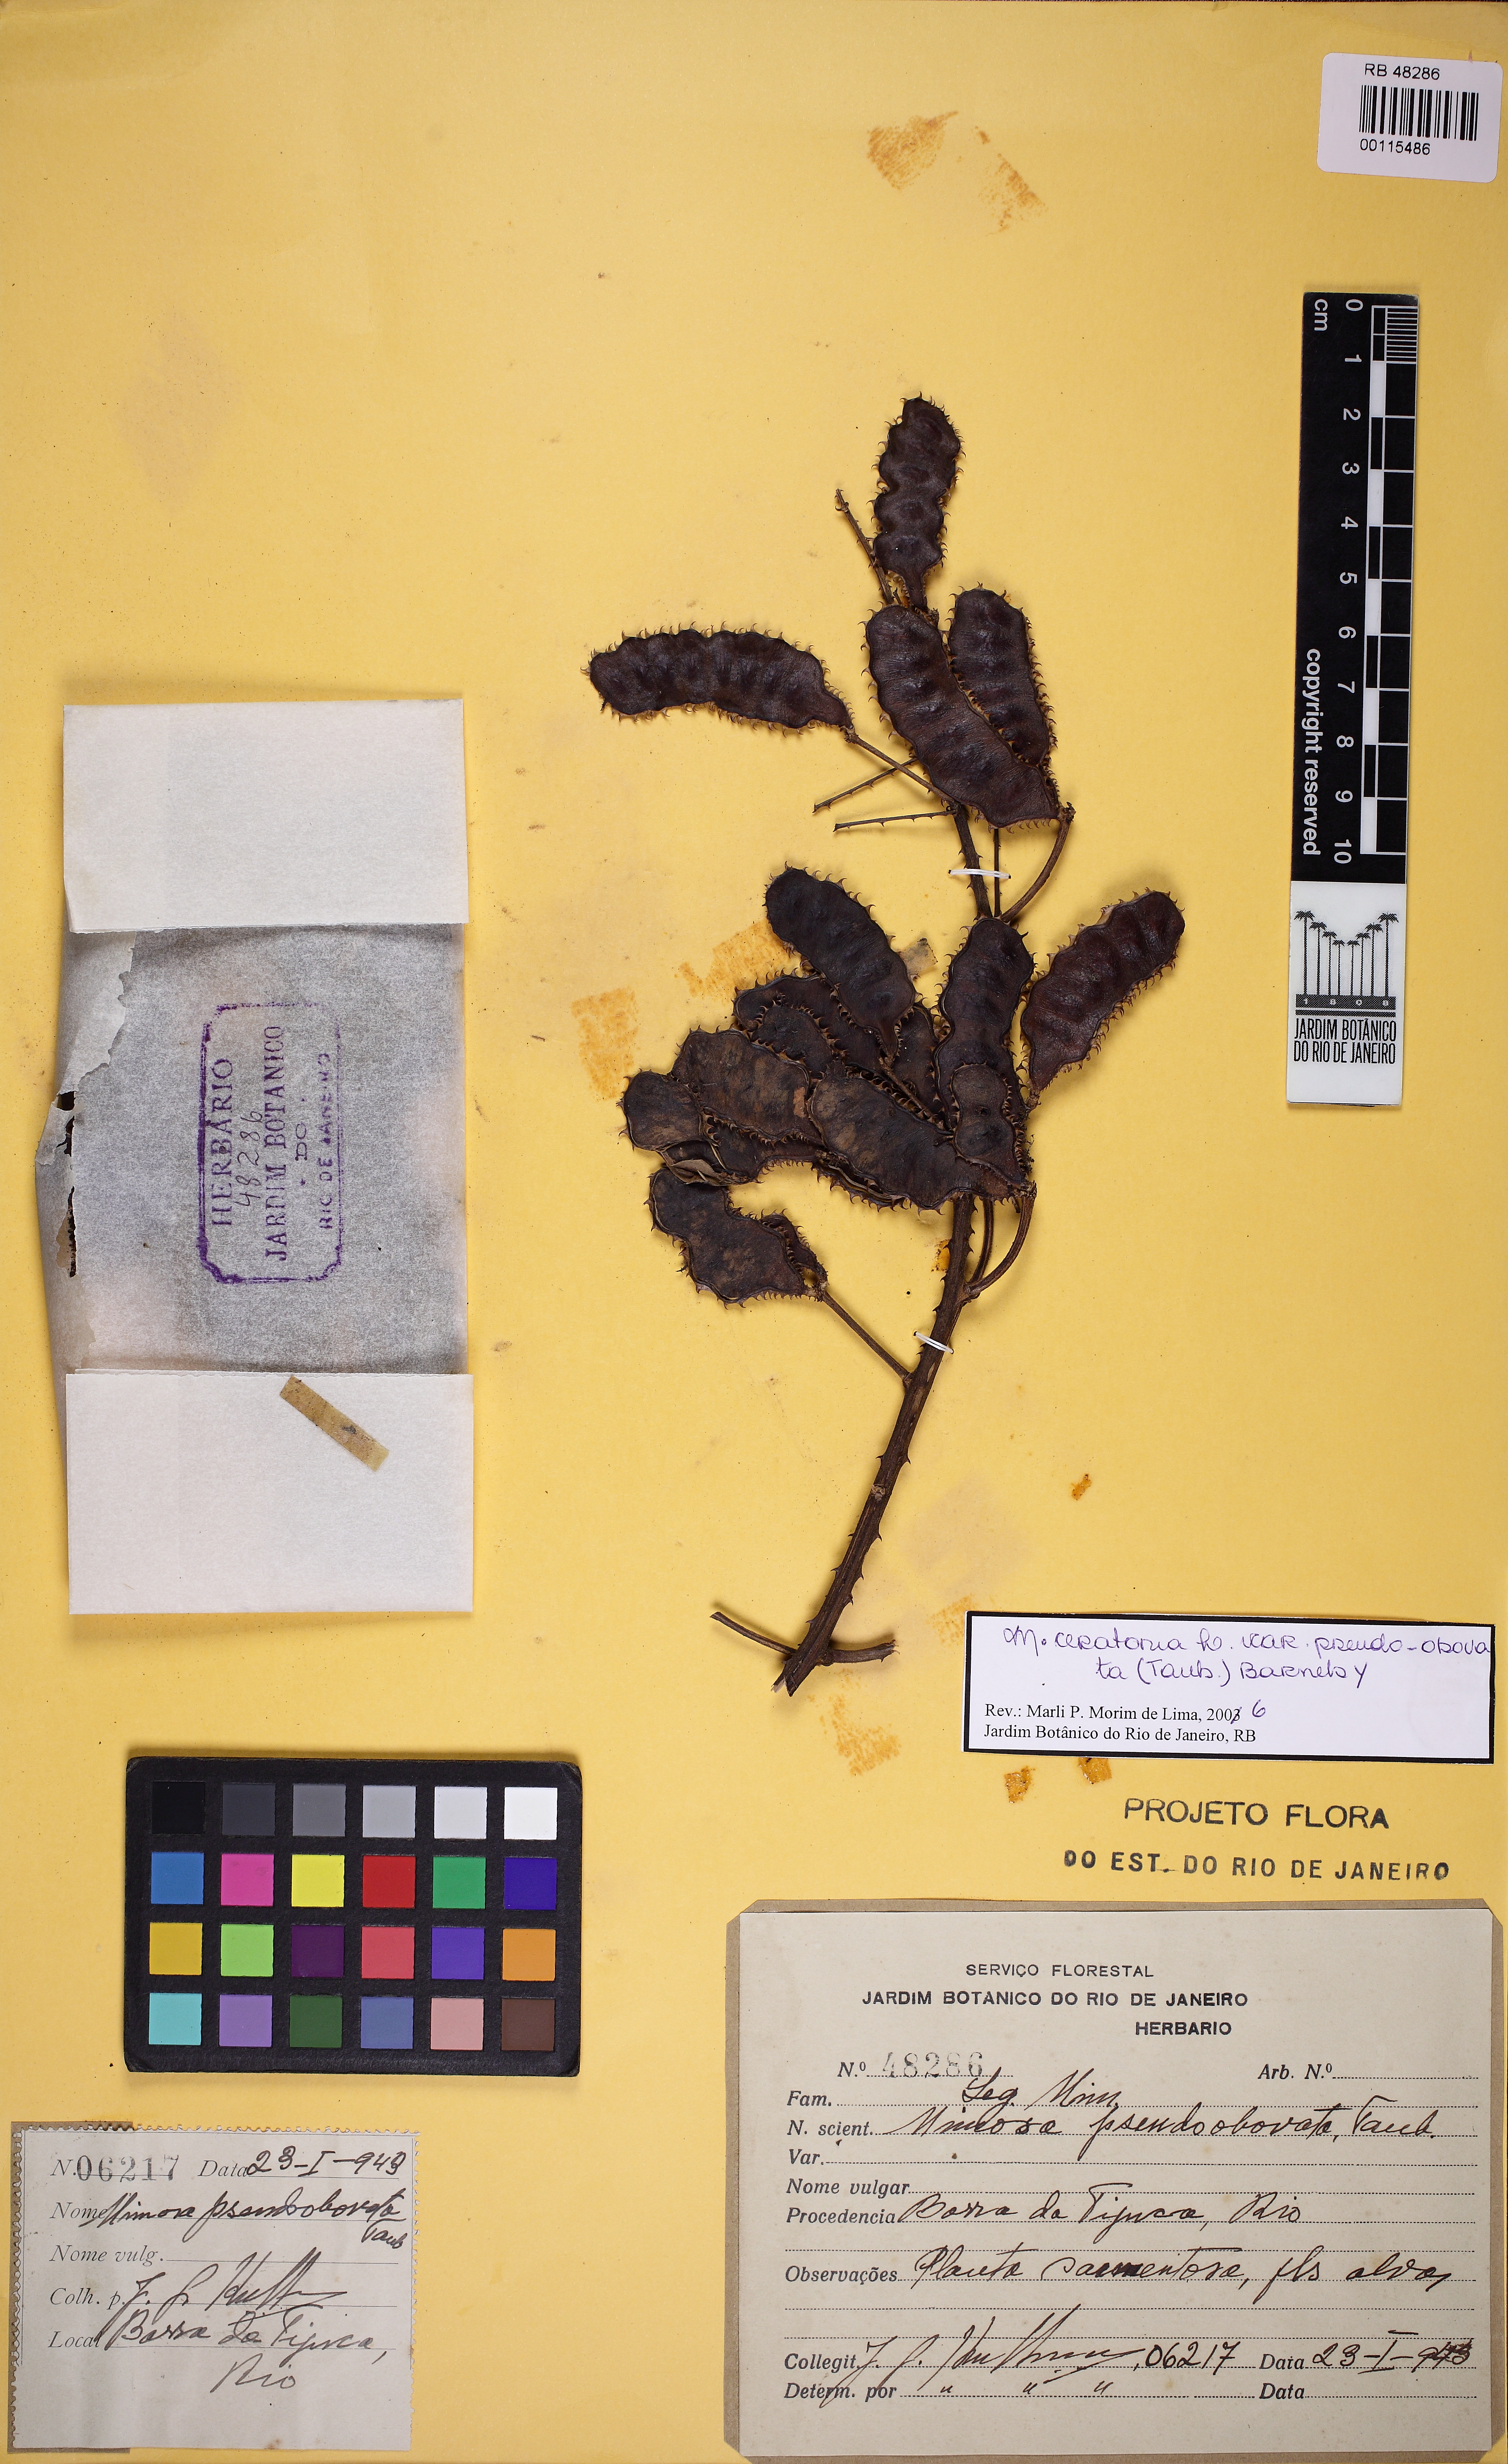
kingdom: Plantae
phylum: Tracheophyta
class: Magnoliopsida
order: Fabales
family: Fabaceae
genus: Mimosa
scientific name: Mimosa ceratonia
